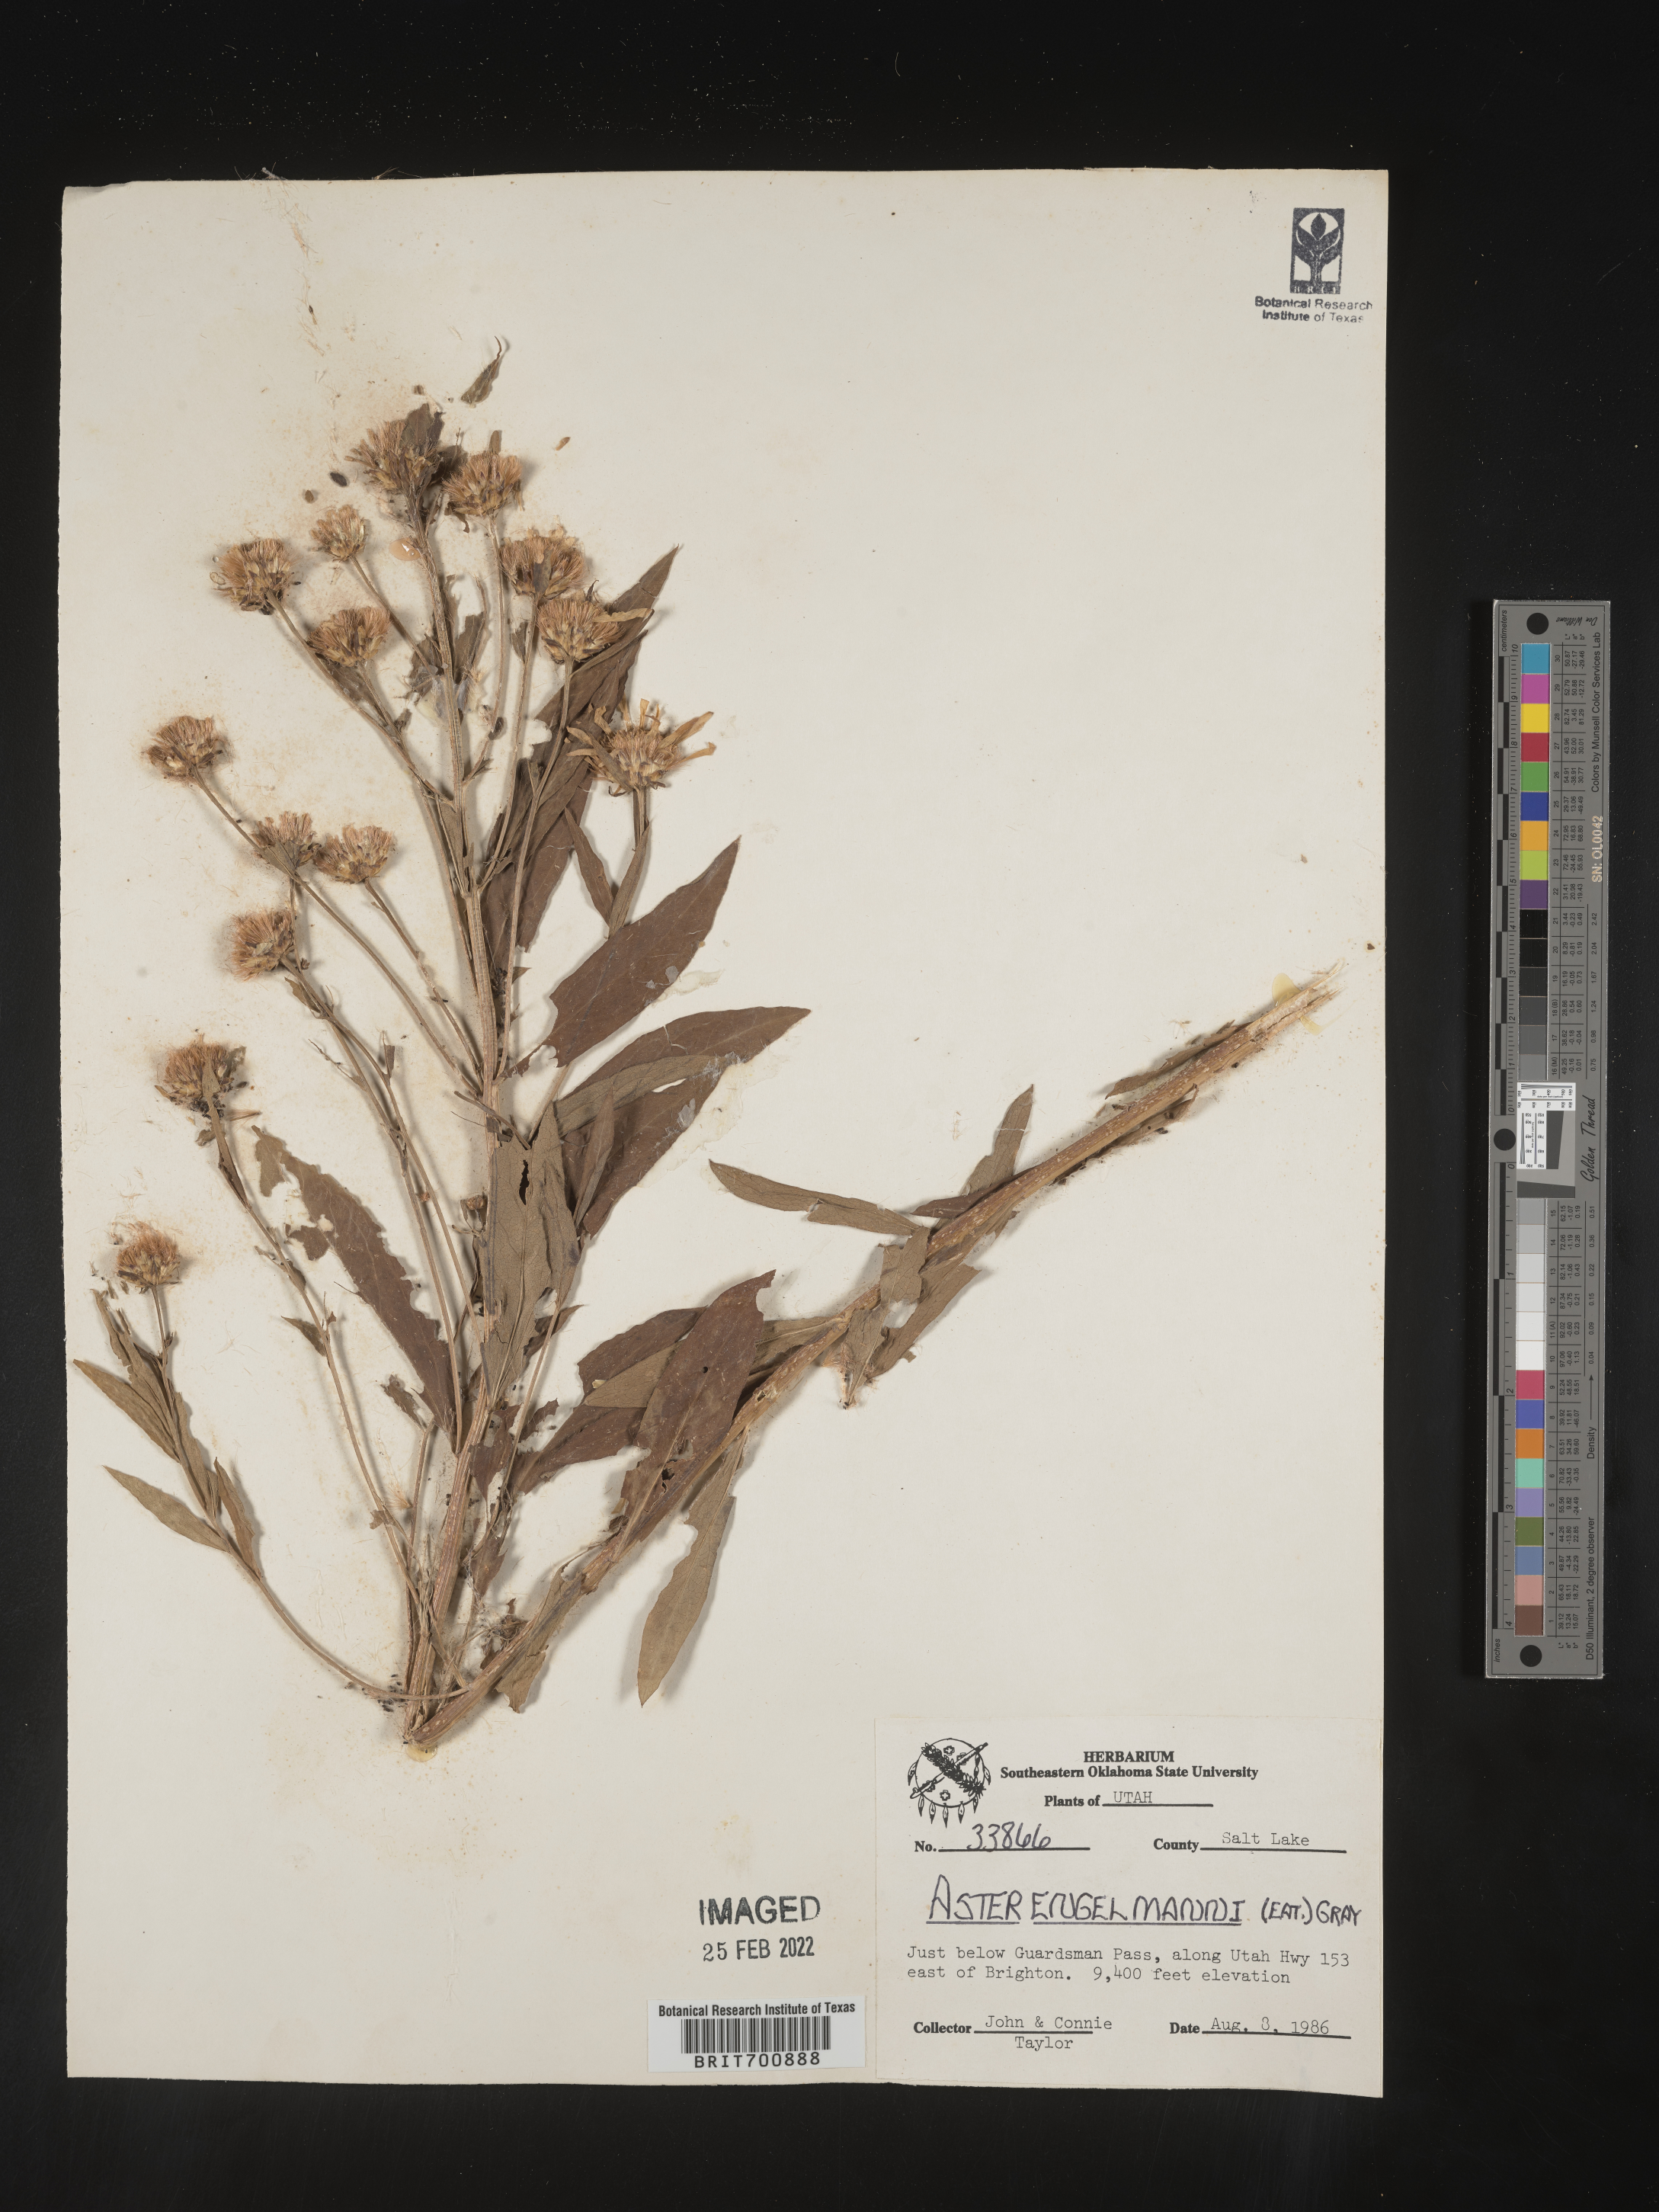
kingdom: Plantae
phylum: Tracheophyta
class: Magnoliopsida
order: Asterales
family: Asteraceae
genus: Eucephalus
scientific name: Eucephalus engelmannii
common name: Engelmann's aster
